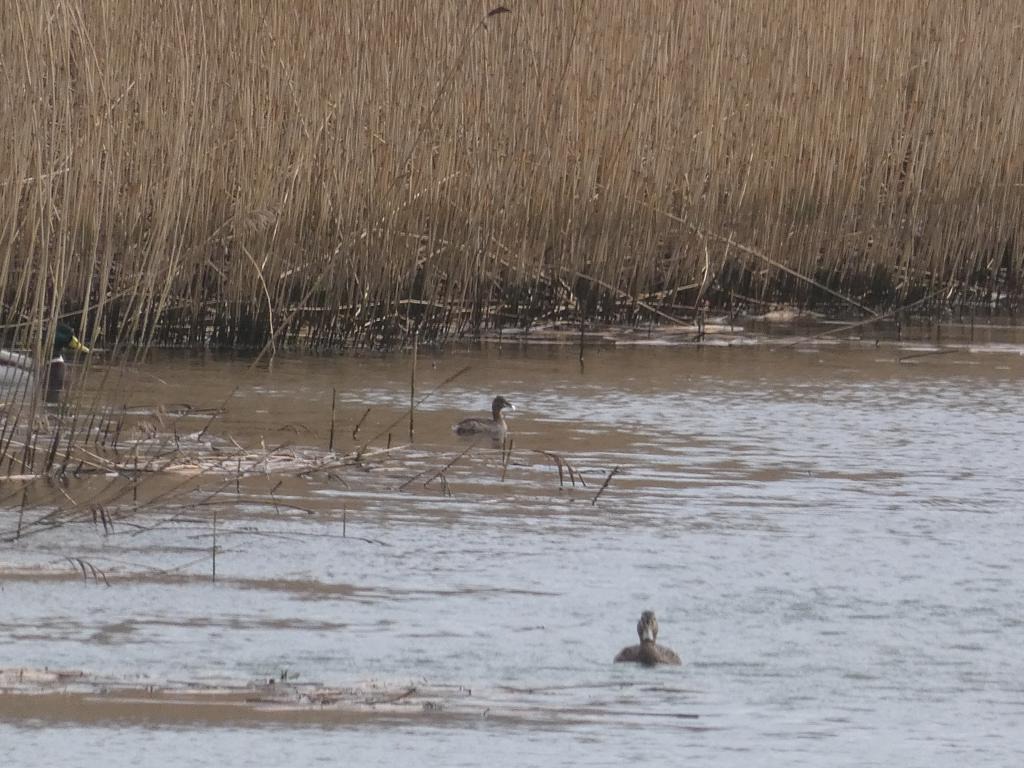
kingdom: Animalia
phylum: Chordata
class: Aves
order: Podicipediformes
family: Podicipedidae
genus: Tachybaptus
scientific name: Tachybaptus ruficollis
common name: Lille lappedykker
